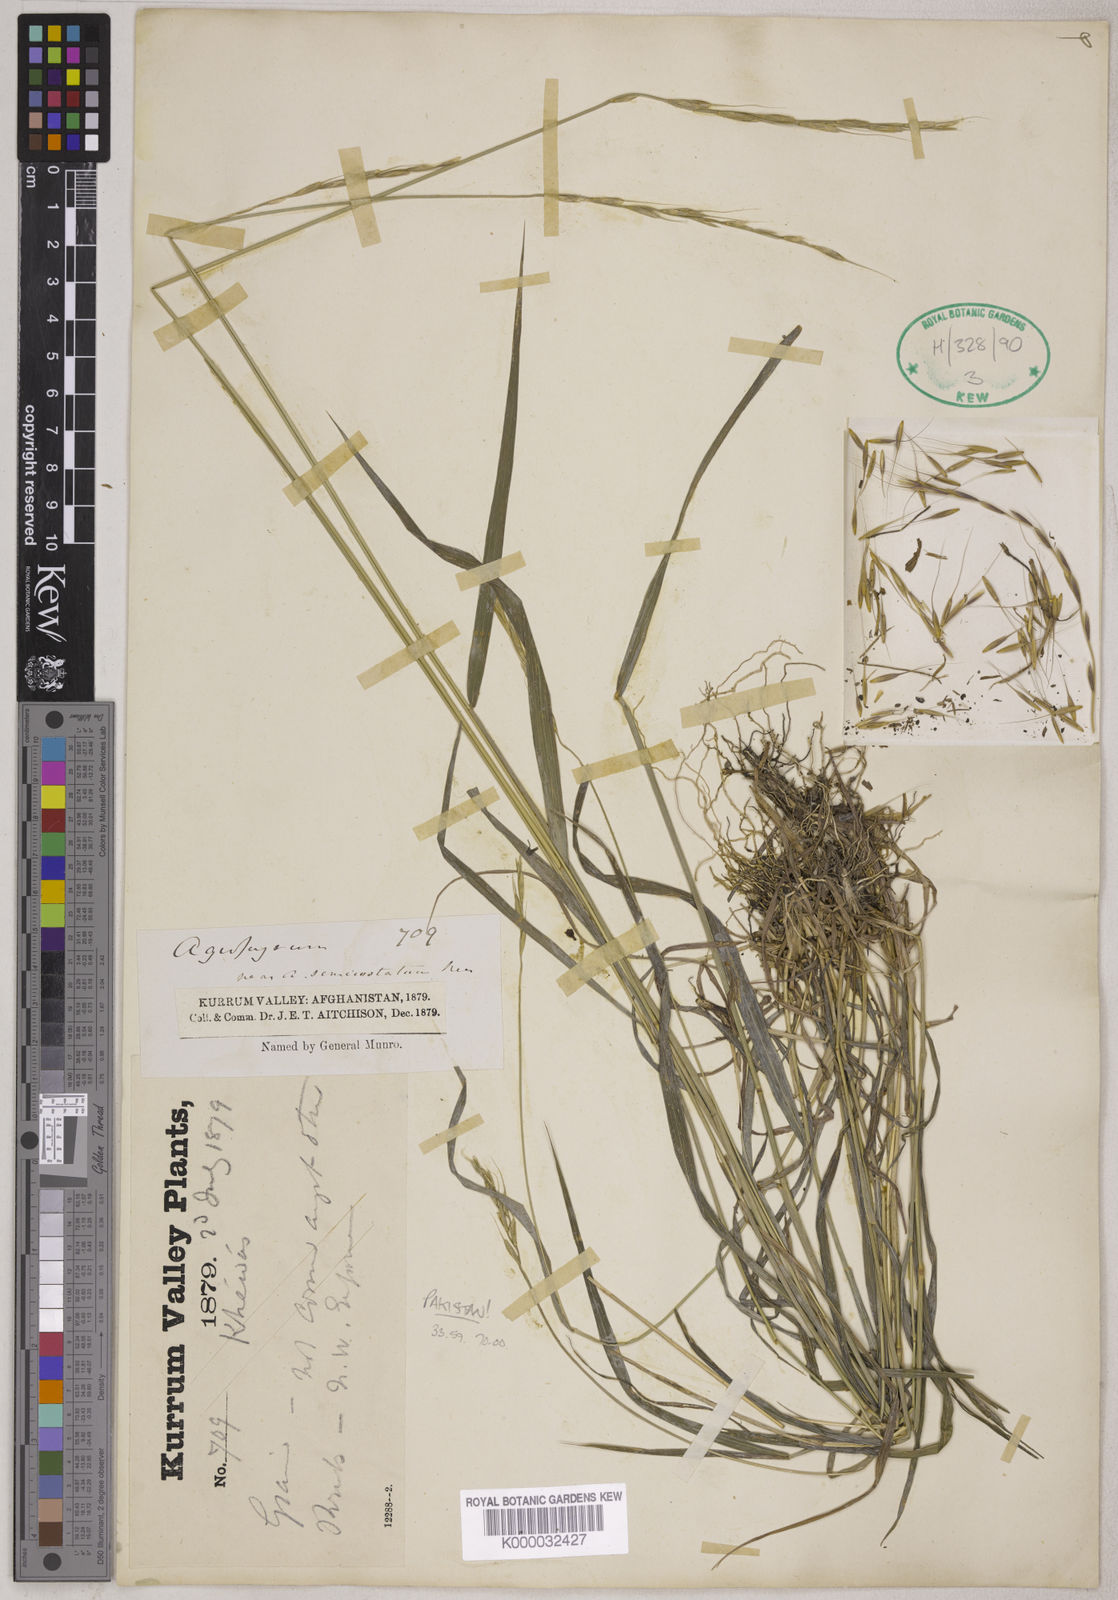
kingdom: Plantae
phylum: Tracheophyta
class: Liliopsida
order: Poales
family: Poaceae
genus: Elymus
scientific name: Elymus kuramensis
